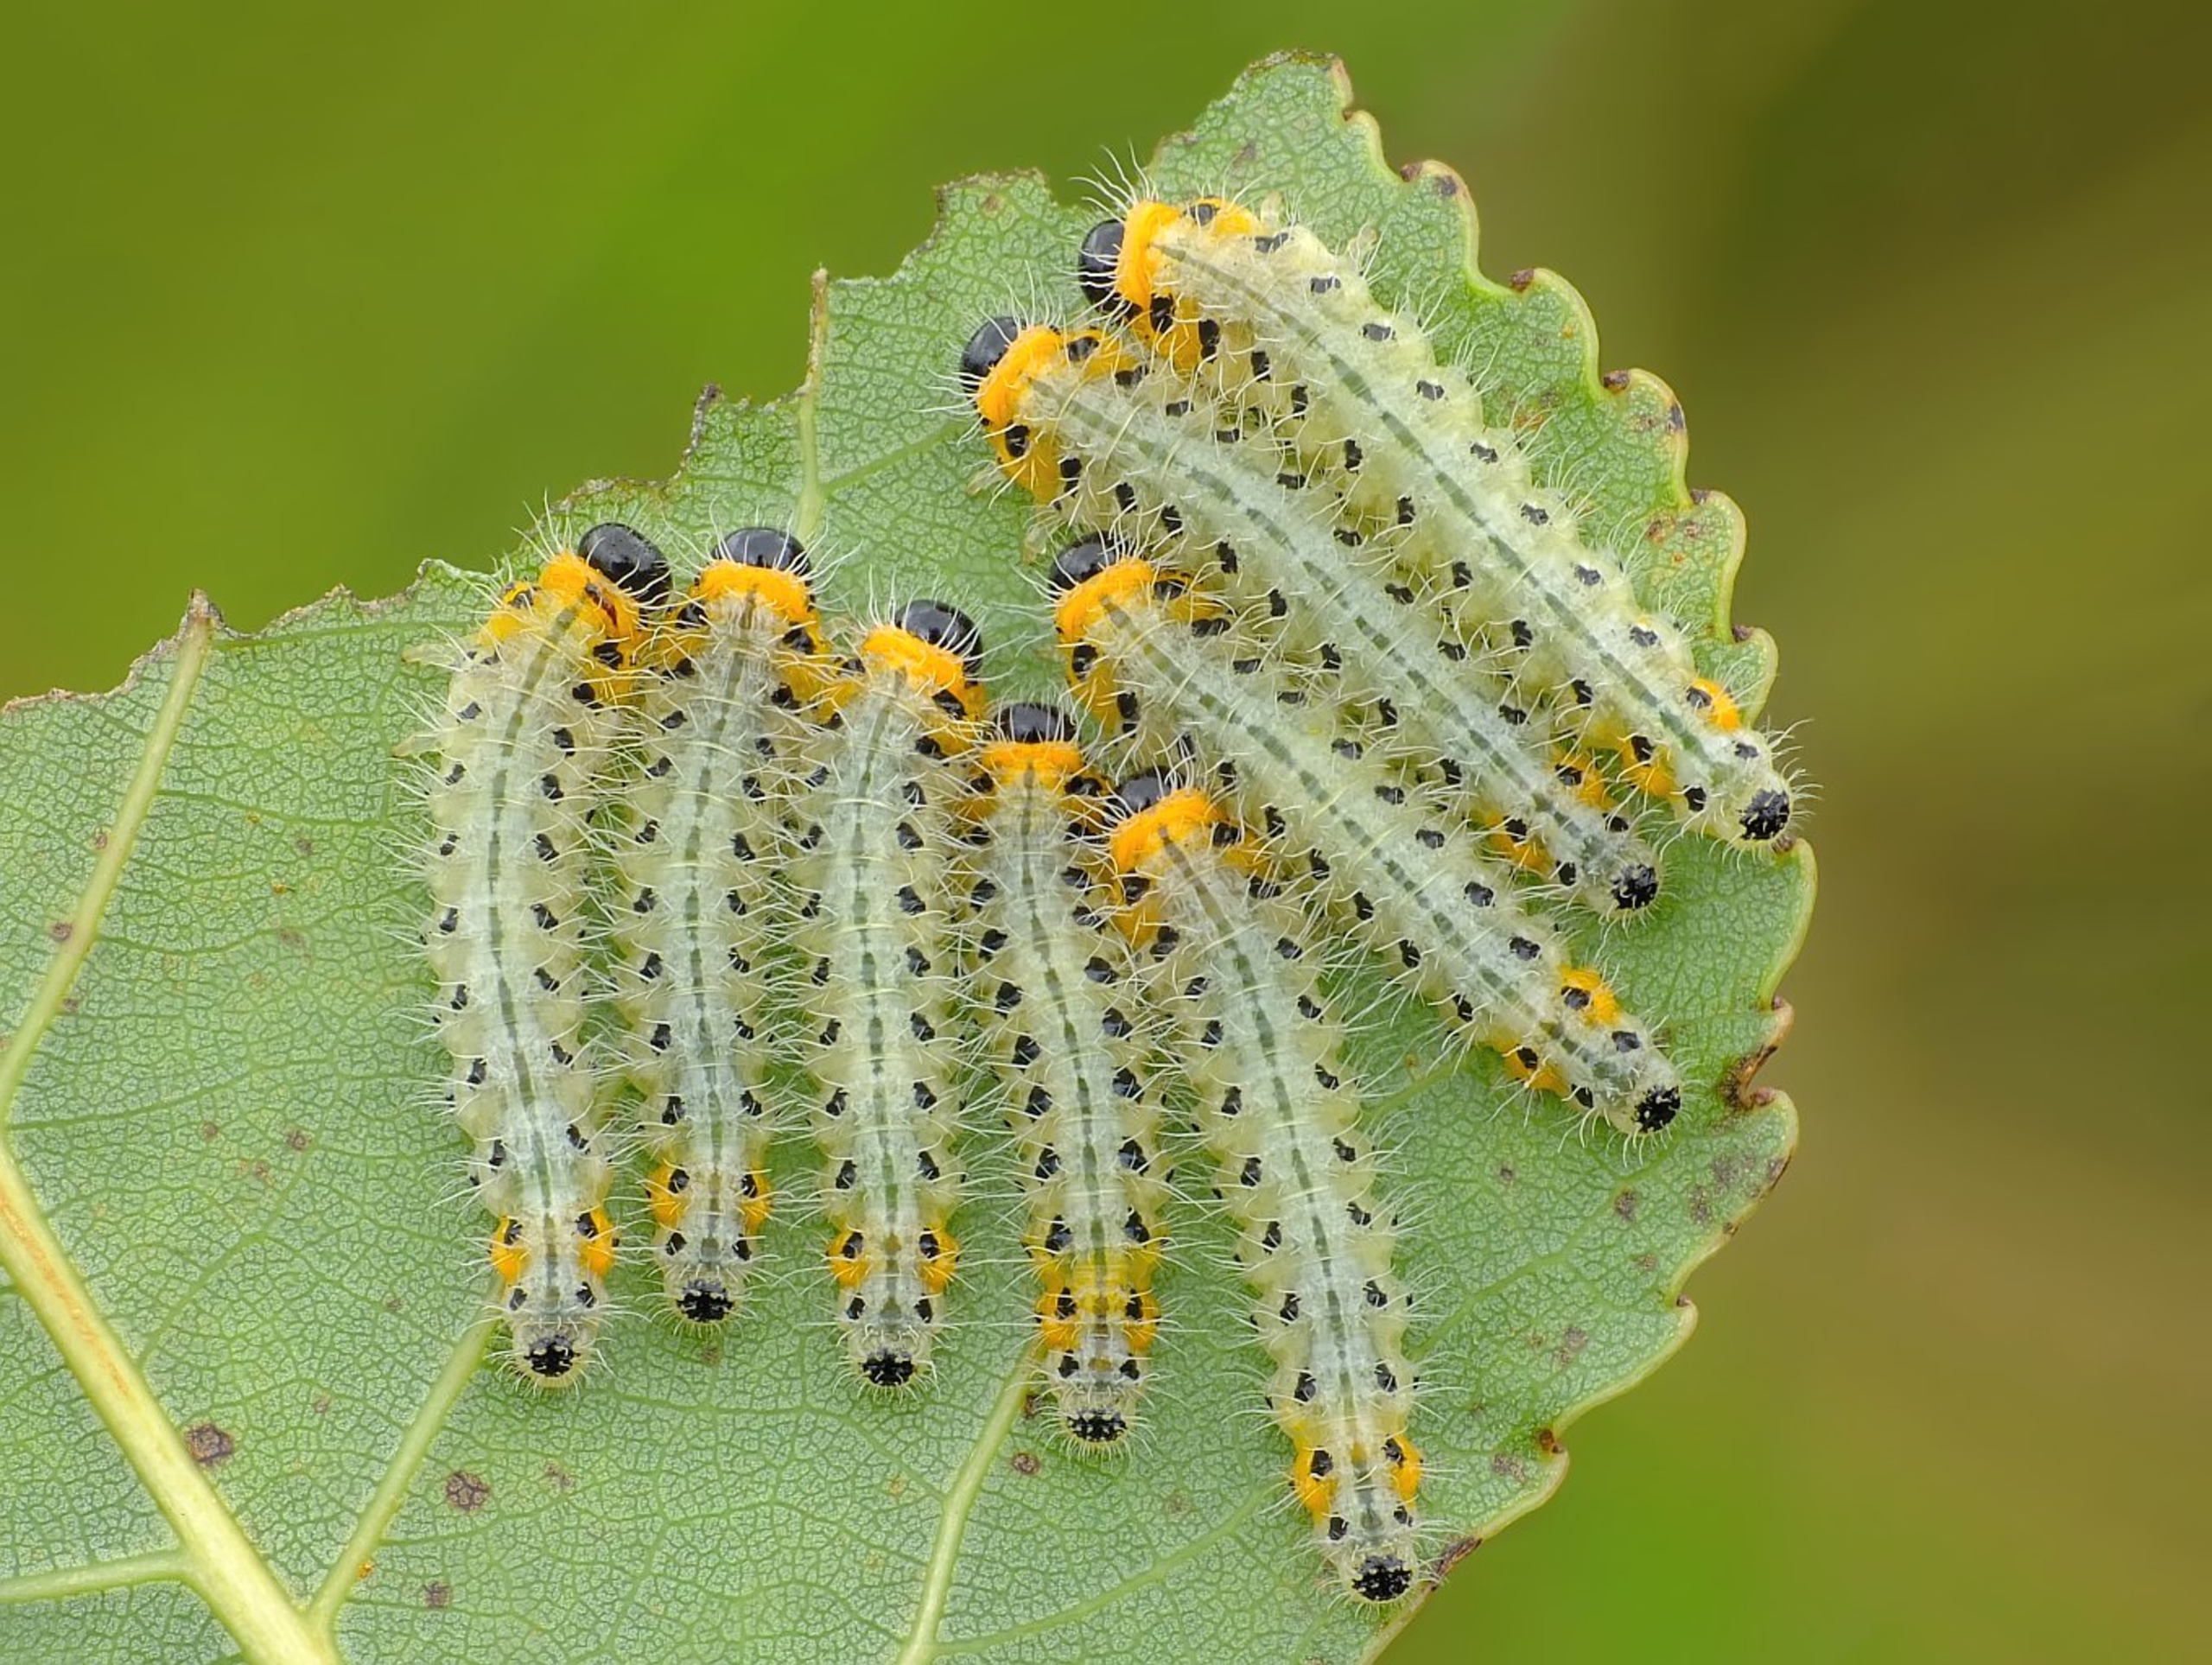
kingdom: Animalia
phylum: Arthropoda
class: Insecta
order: Hymenoptera
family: Tenthredinidae
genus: Cladius
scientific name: Cladius grandis
